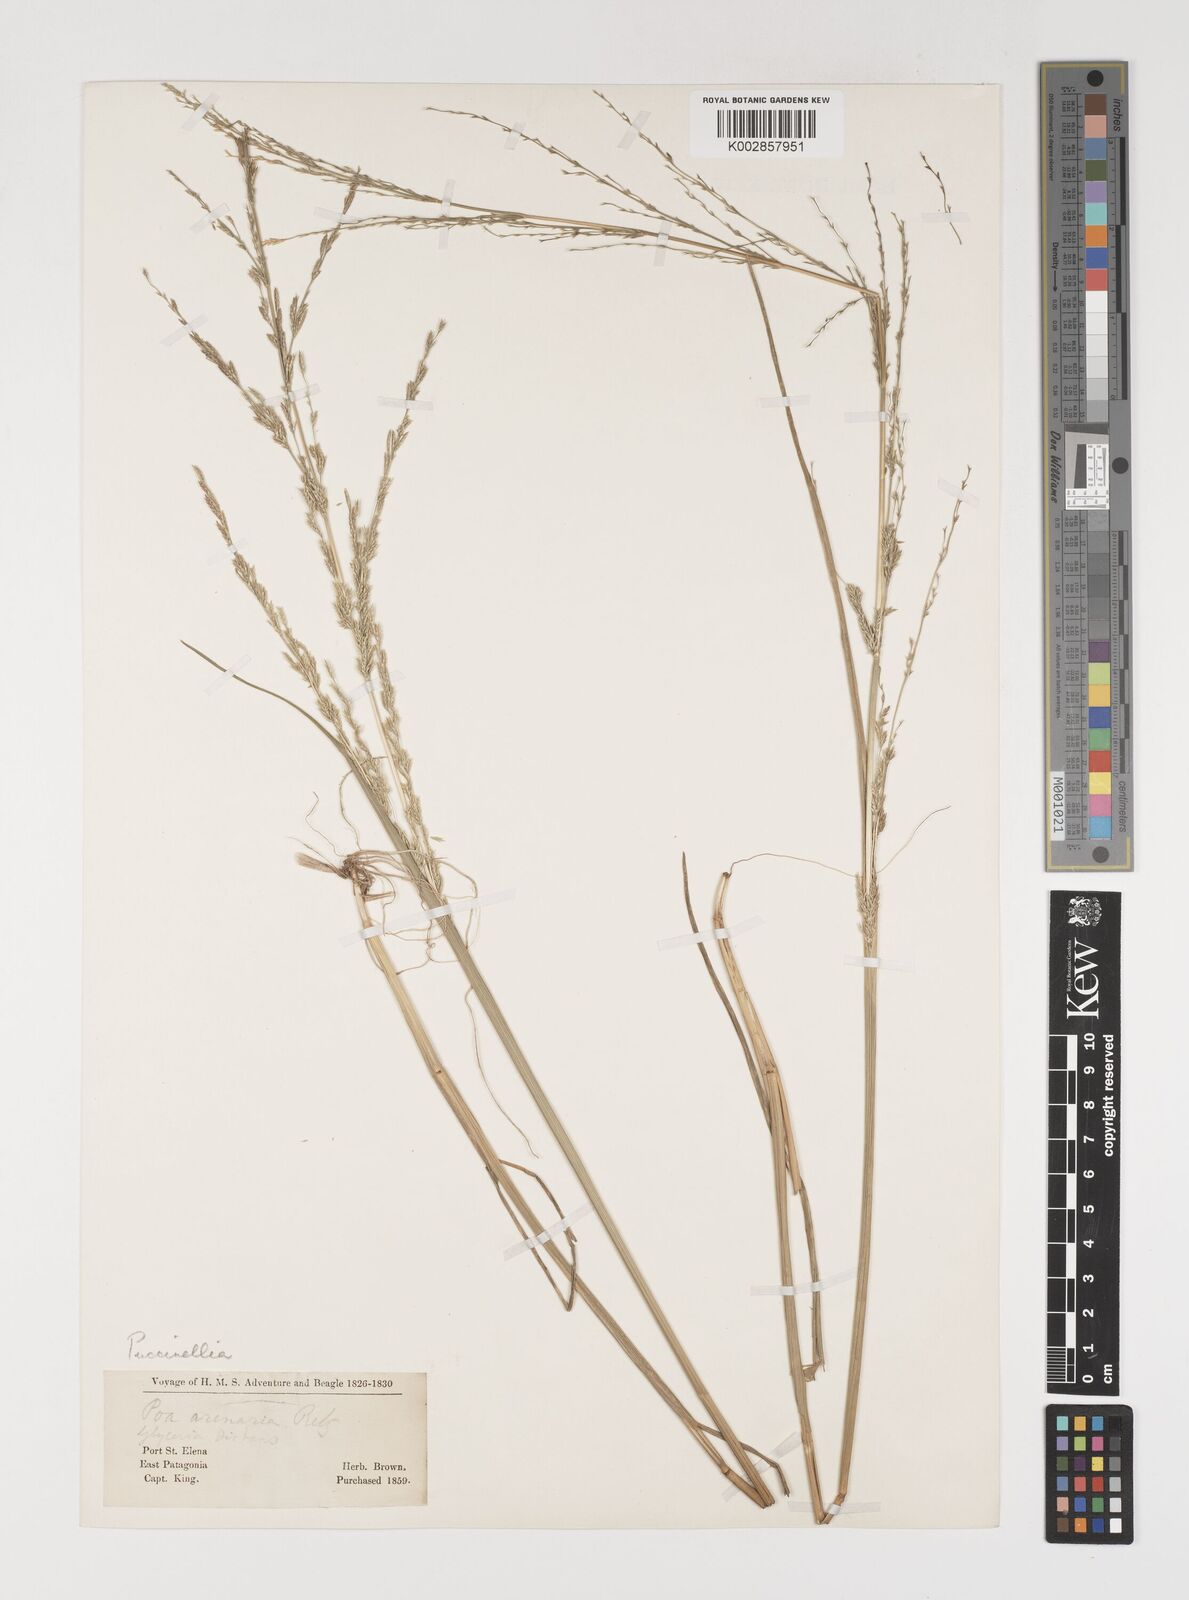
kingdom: Plantae
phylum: Tracheophyta
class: Liliopsida
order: Poales
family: Poaceae
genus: Puccinellia
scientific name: Puccinellia glaucescens
